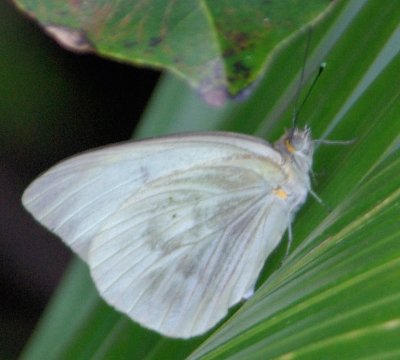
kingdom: Animalia
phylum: Arthropoda
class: Insecta
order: Lepidoptera
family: Pieridae
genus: Ascia
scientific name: Ascia monuste
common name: Great Southern White
